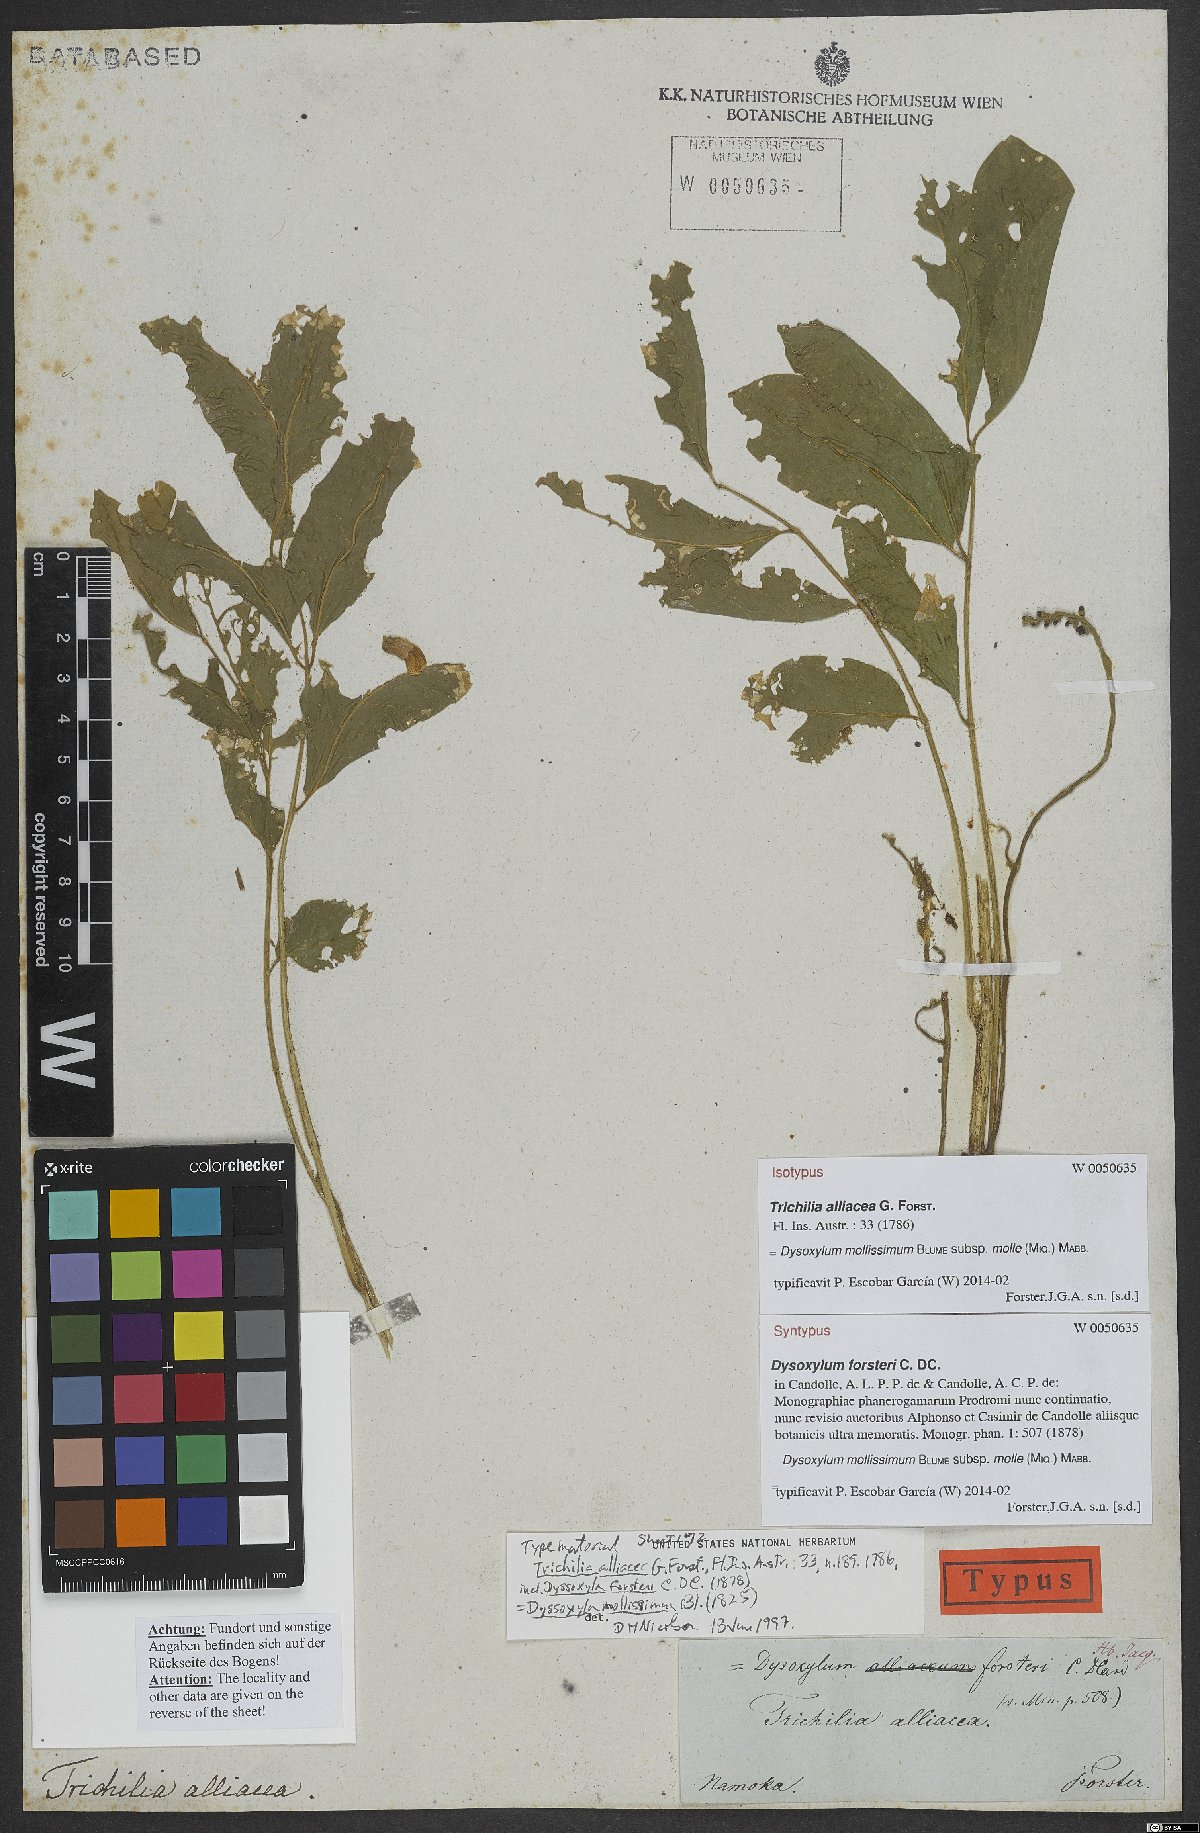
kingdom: Plantae
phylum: Tracheophyta
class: Magnoliopsida
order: Sapindales
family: Meliaceae
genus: Didymocheton
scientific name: Didymocheton mollis
